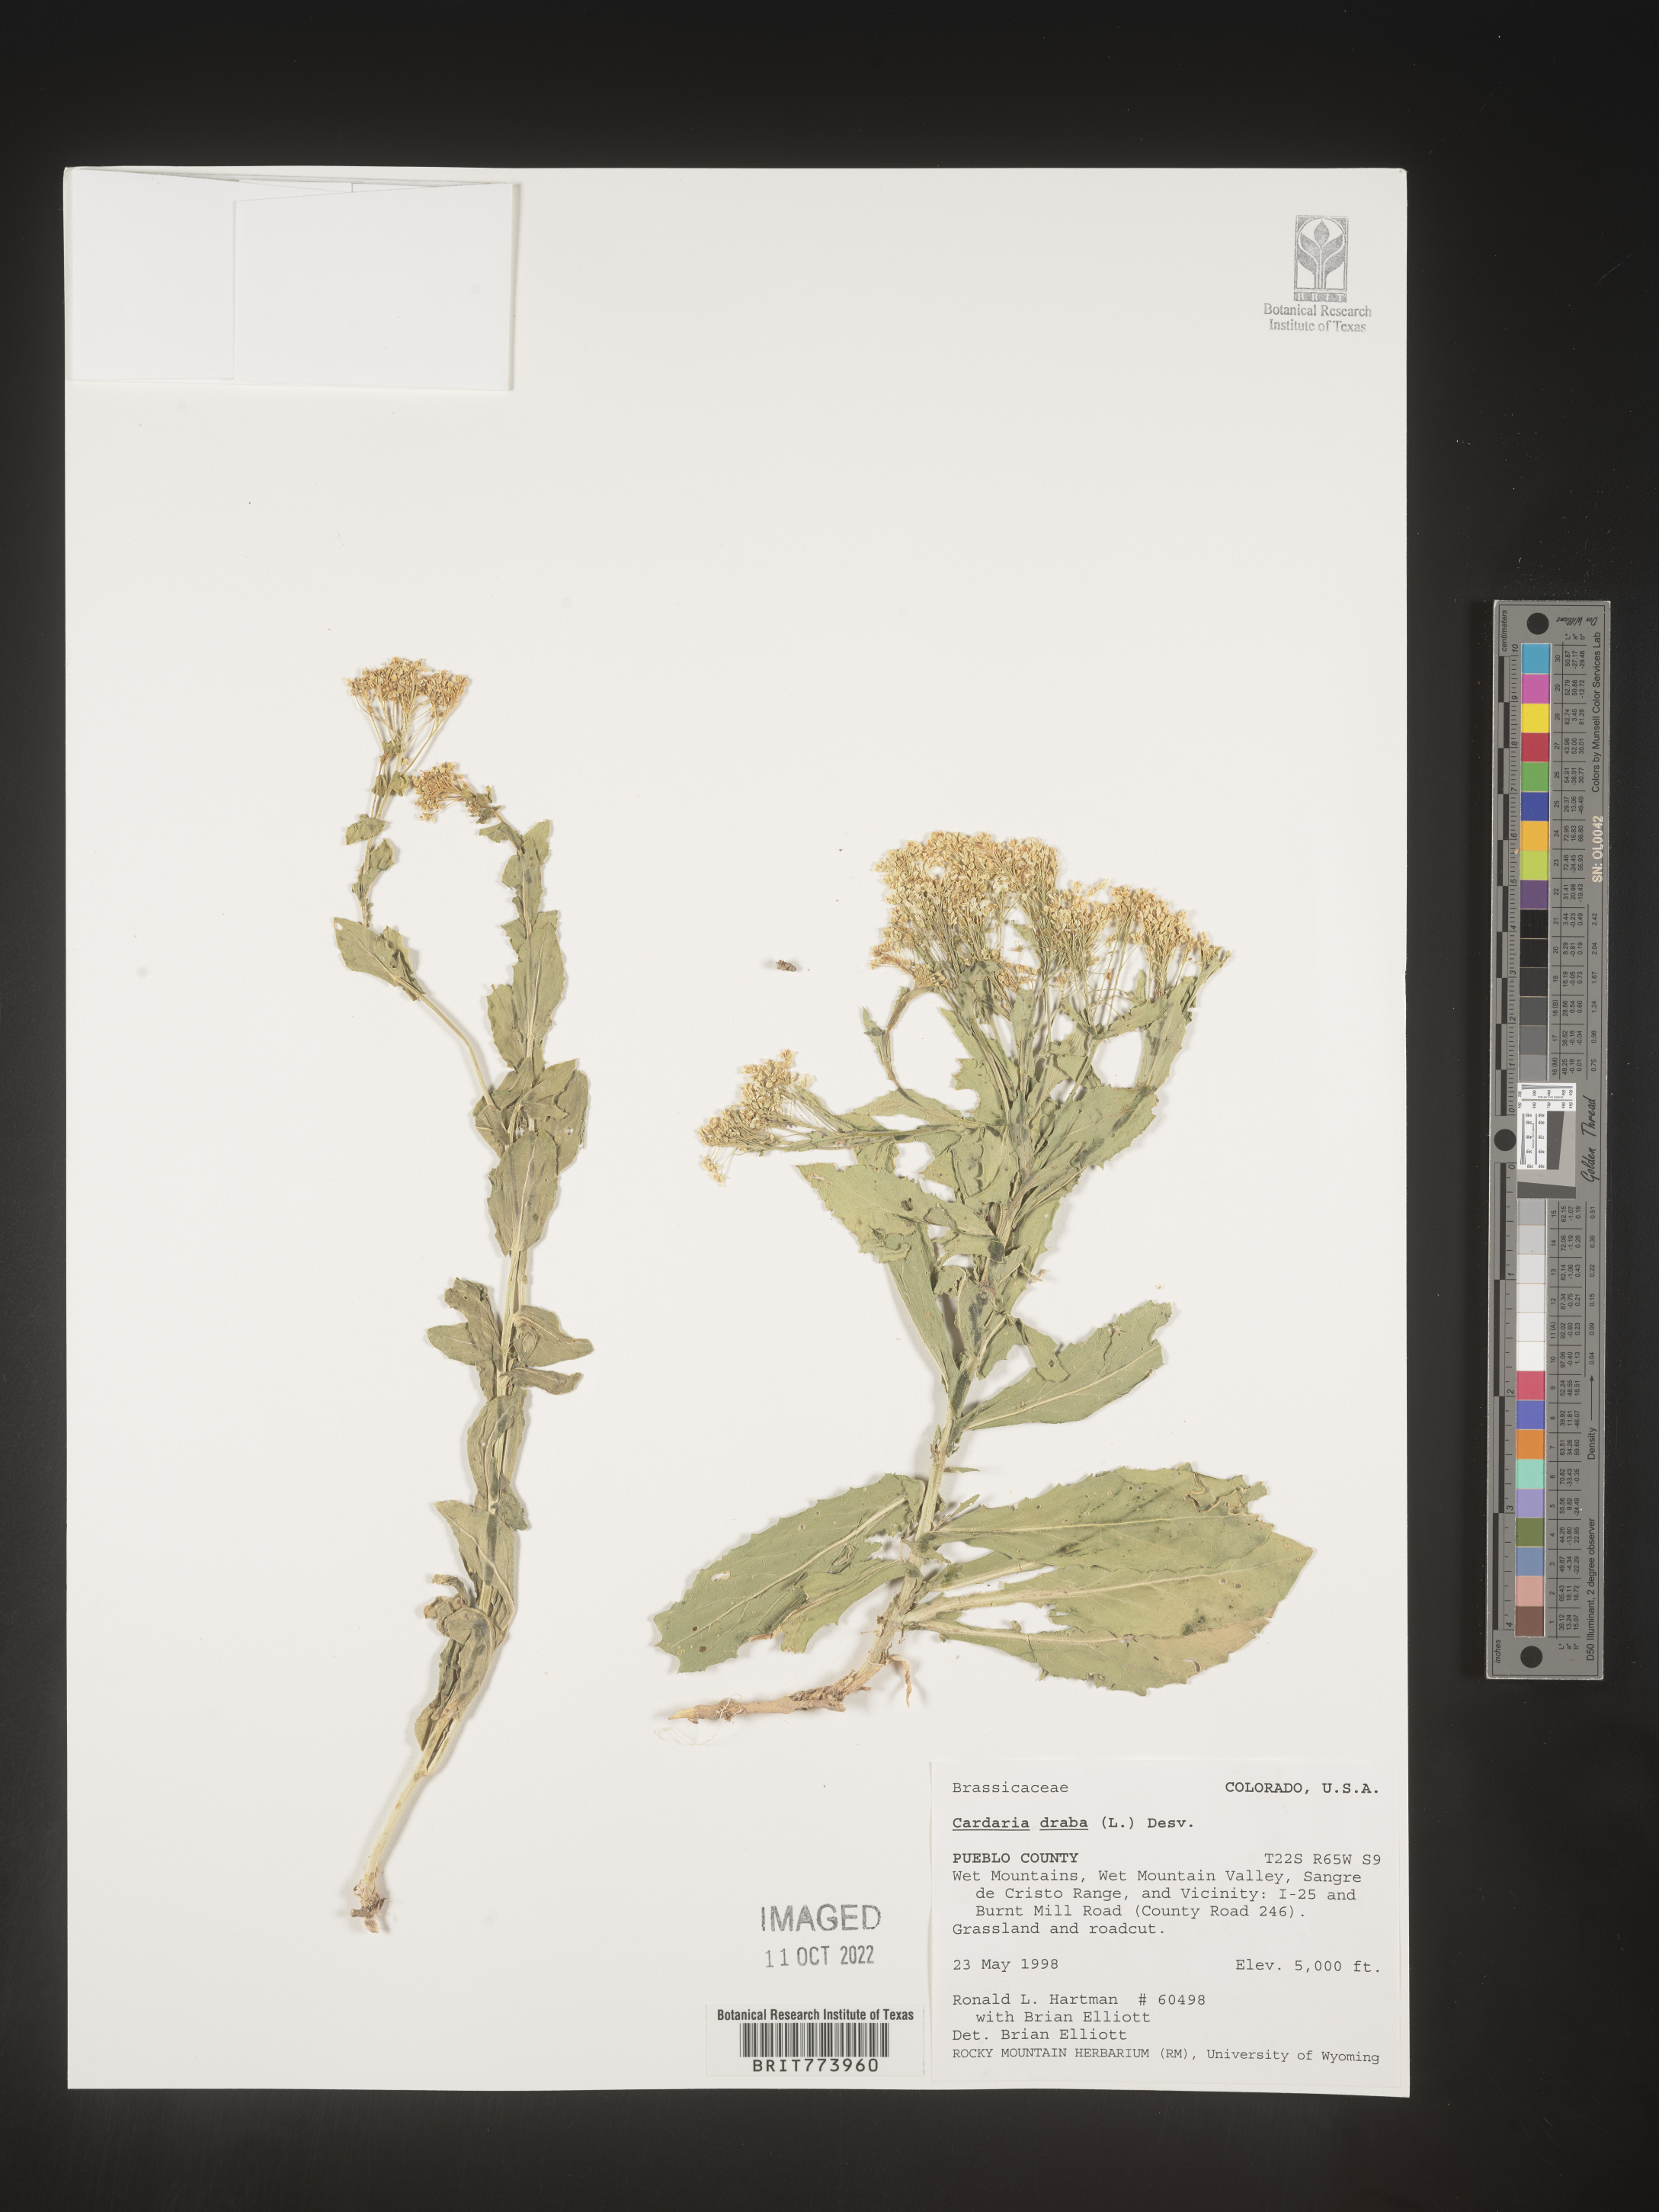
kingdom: Plantae
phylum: Tracheophyta
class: Magnoliopsida
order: Brassicales
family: Brassicaceae
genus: Lepidium
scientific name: Lepidium draba
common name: Hoary cress
